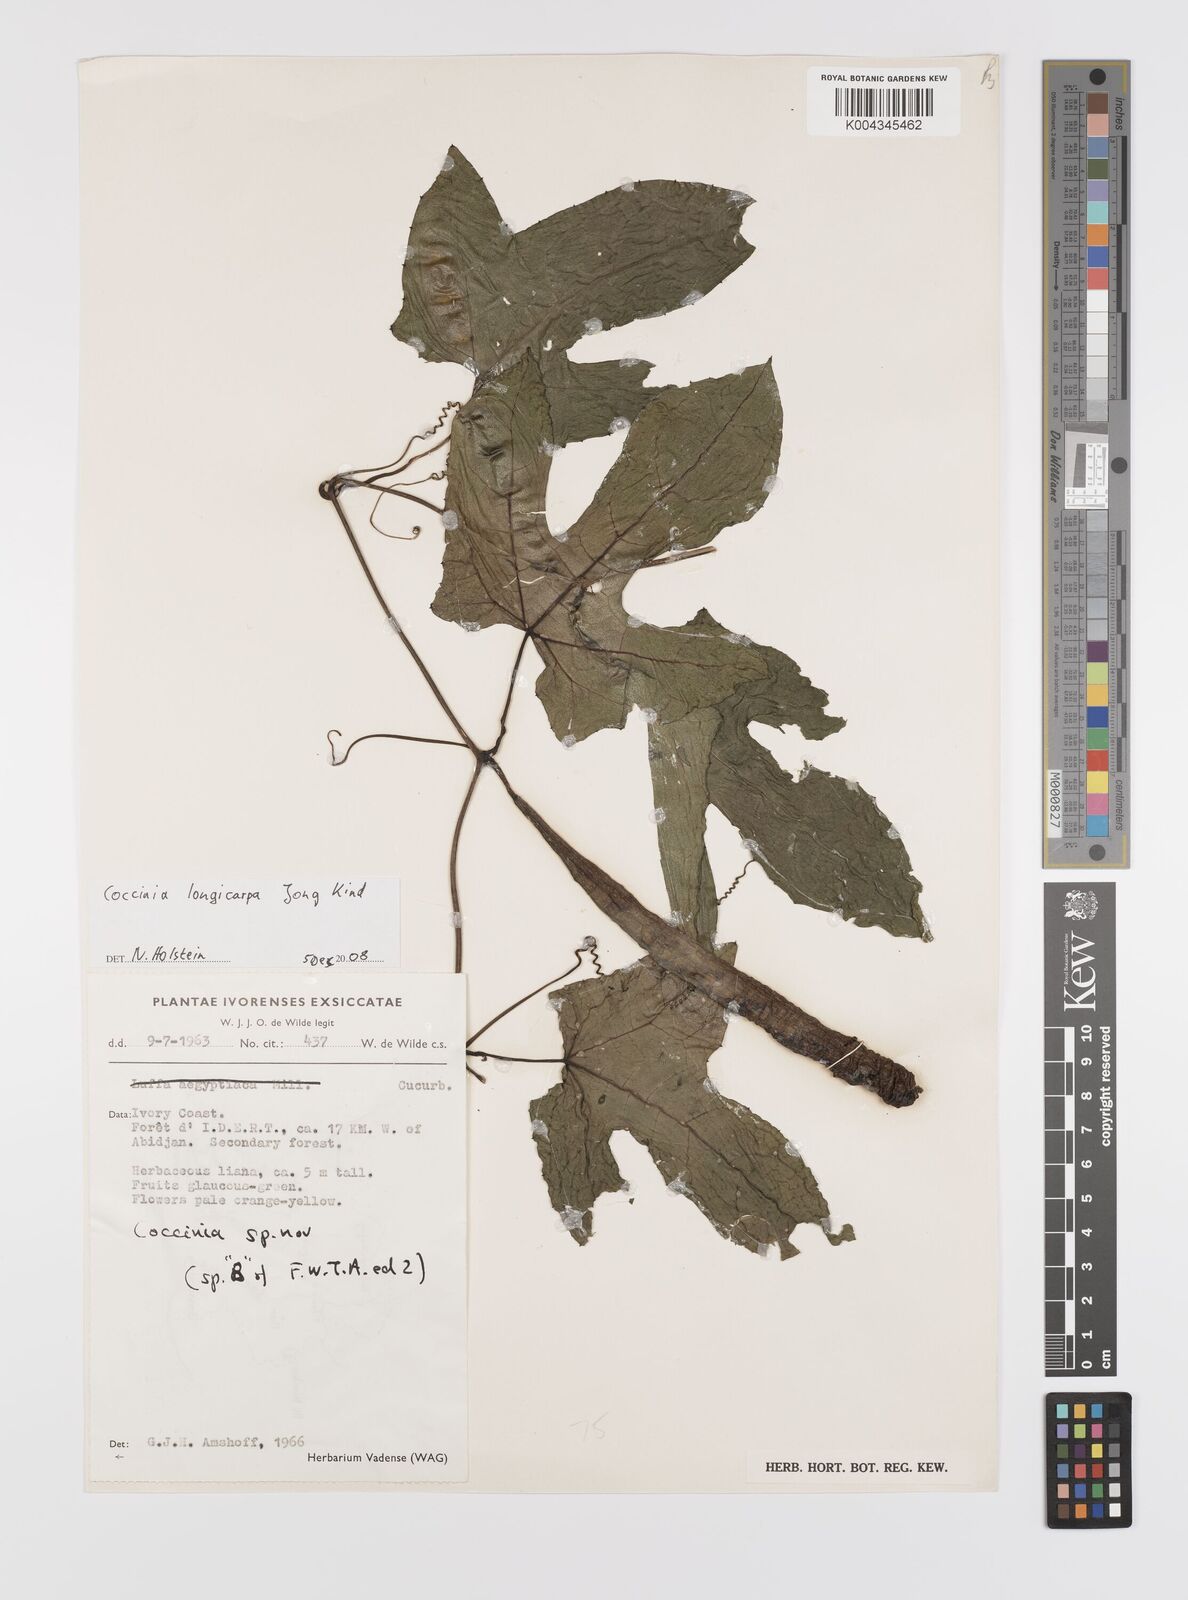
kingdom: Plantae
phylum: Tracheophyta
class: Magnoliopsida
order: Cucurbitales
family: Cucurbitaceae
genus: Coccinia
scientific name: Coccinia longicarpa
